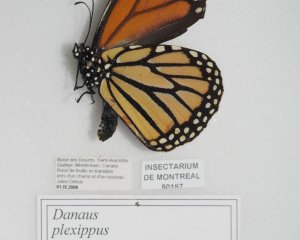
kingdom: Animalia
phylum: Arthropoda
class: Insecta
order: Lepidoptera
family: Nymphalidae
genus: Danaus
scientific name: Danaus plexippus
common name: Monarch
